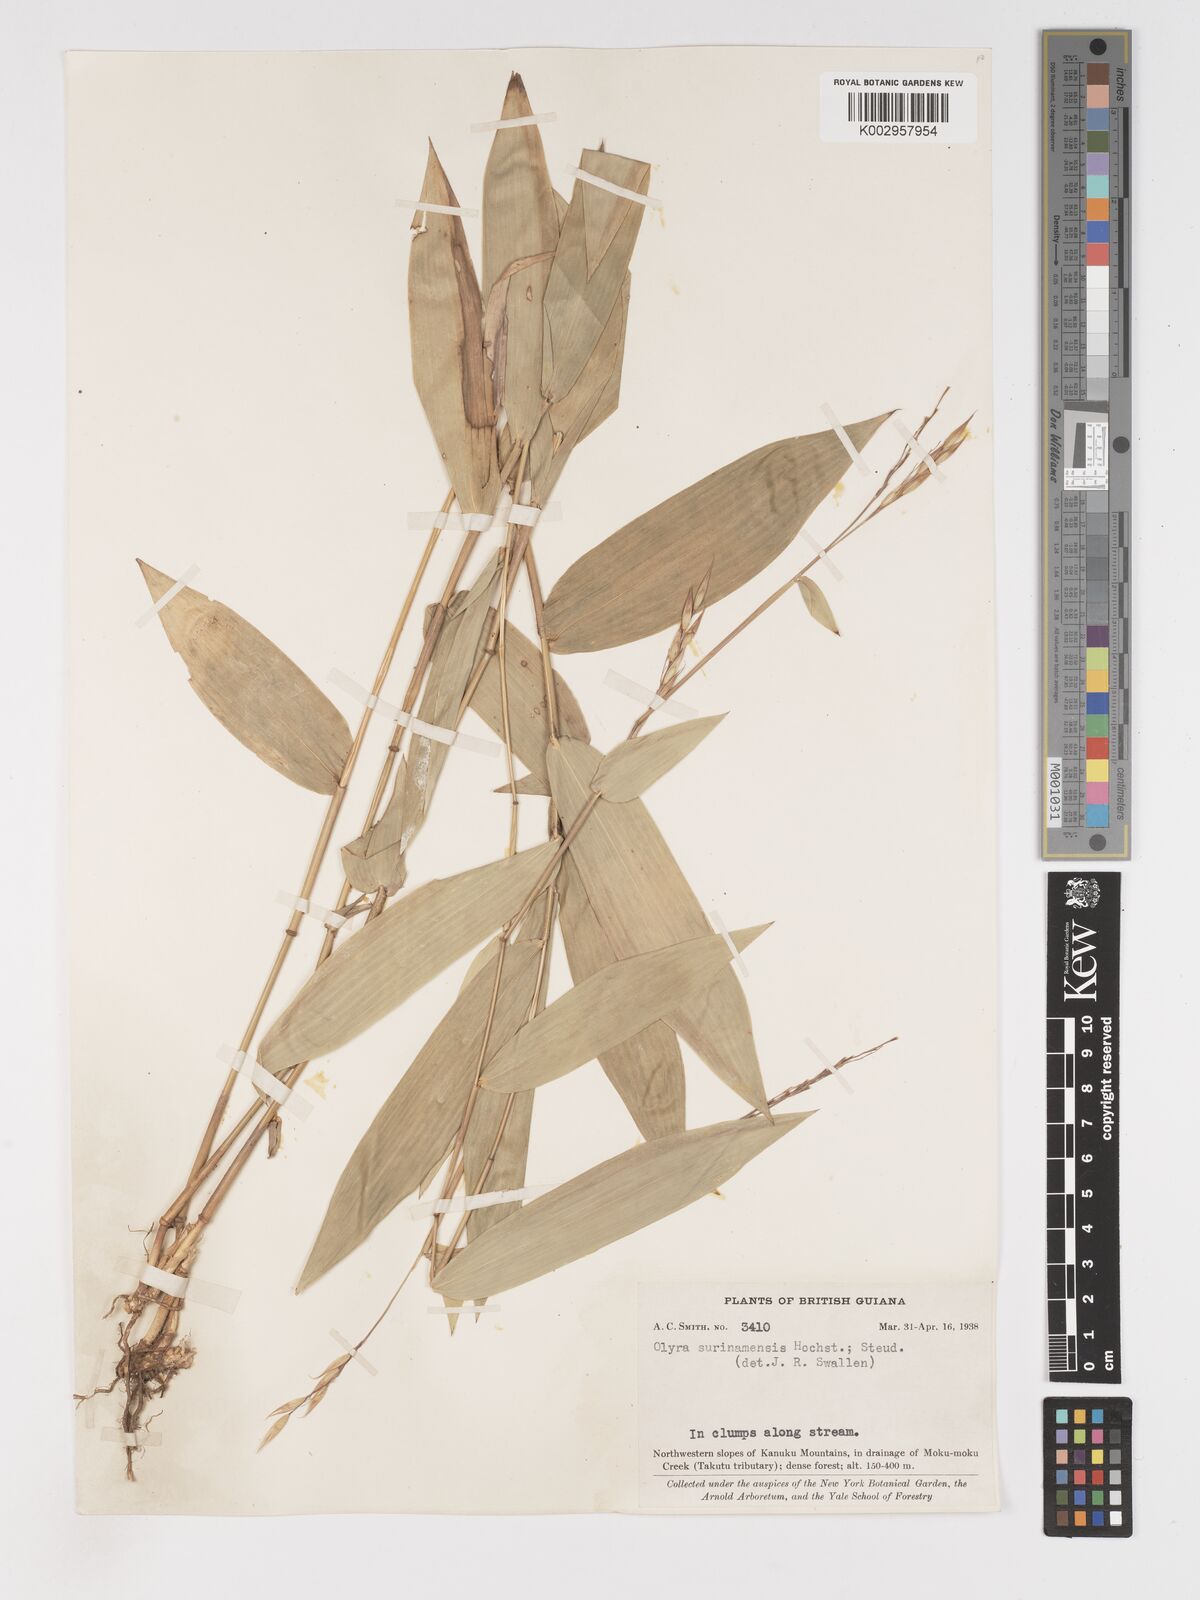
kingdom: Plantae
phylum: Tracheophyta
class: Liliopsida
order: Poales
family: Poaceae
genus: Olyra
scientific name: Olyra longifolia
